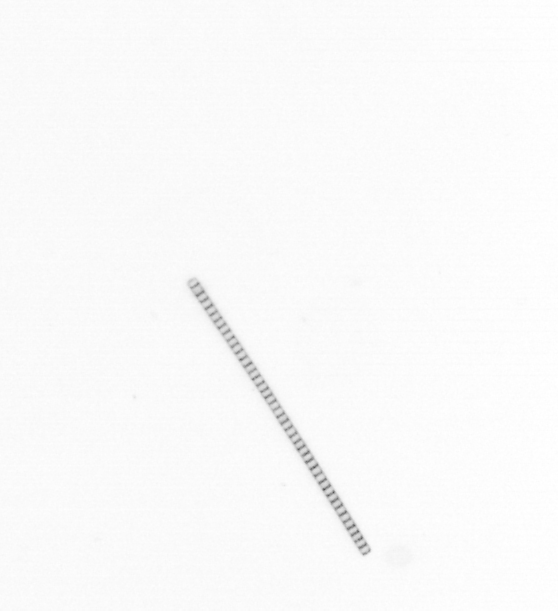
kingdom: Chromista
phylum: Ochrophyta
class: Bacillariophyceae
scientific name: Bacillariophyceae
